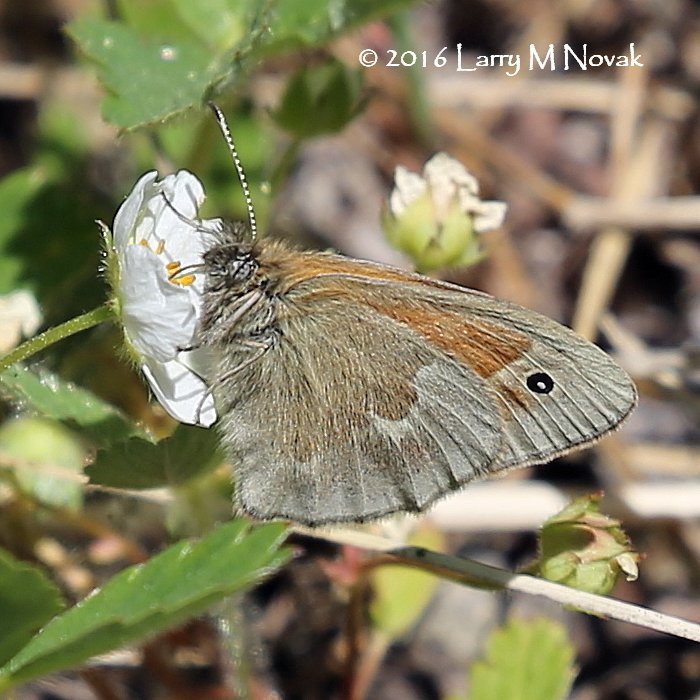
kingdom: Animalia
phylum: Arthropoda
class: Insecta
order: Lepidoptera
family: Nymphalidae
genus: Coenonympha
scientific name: Coenonympha tullia
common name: Large Heath
